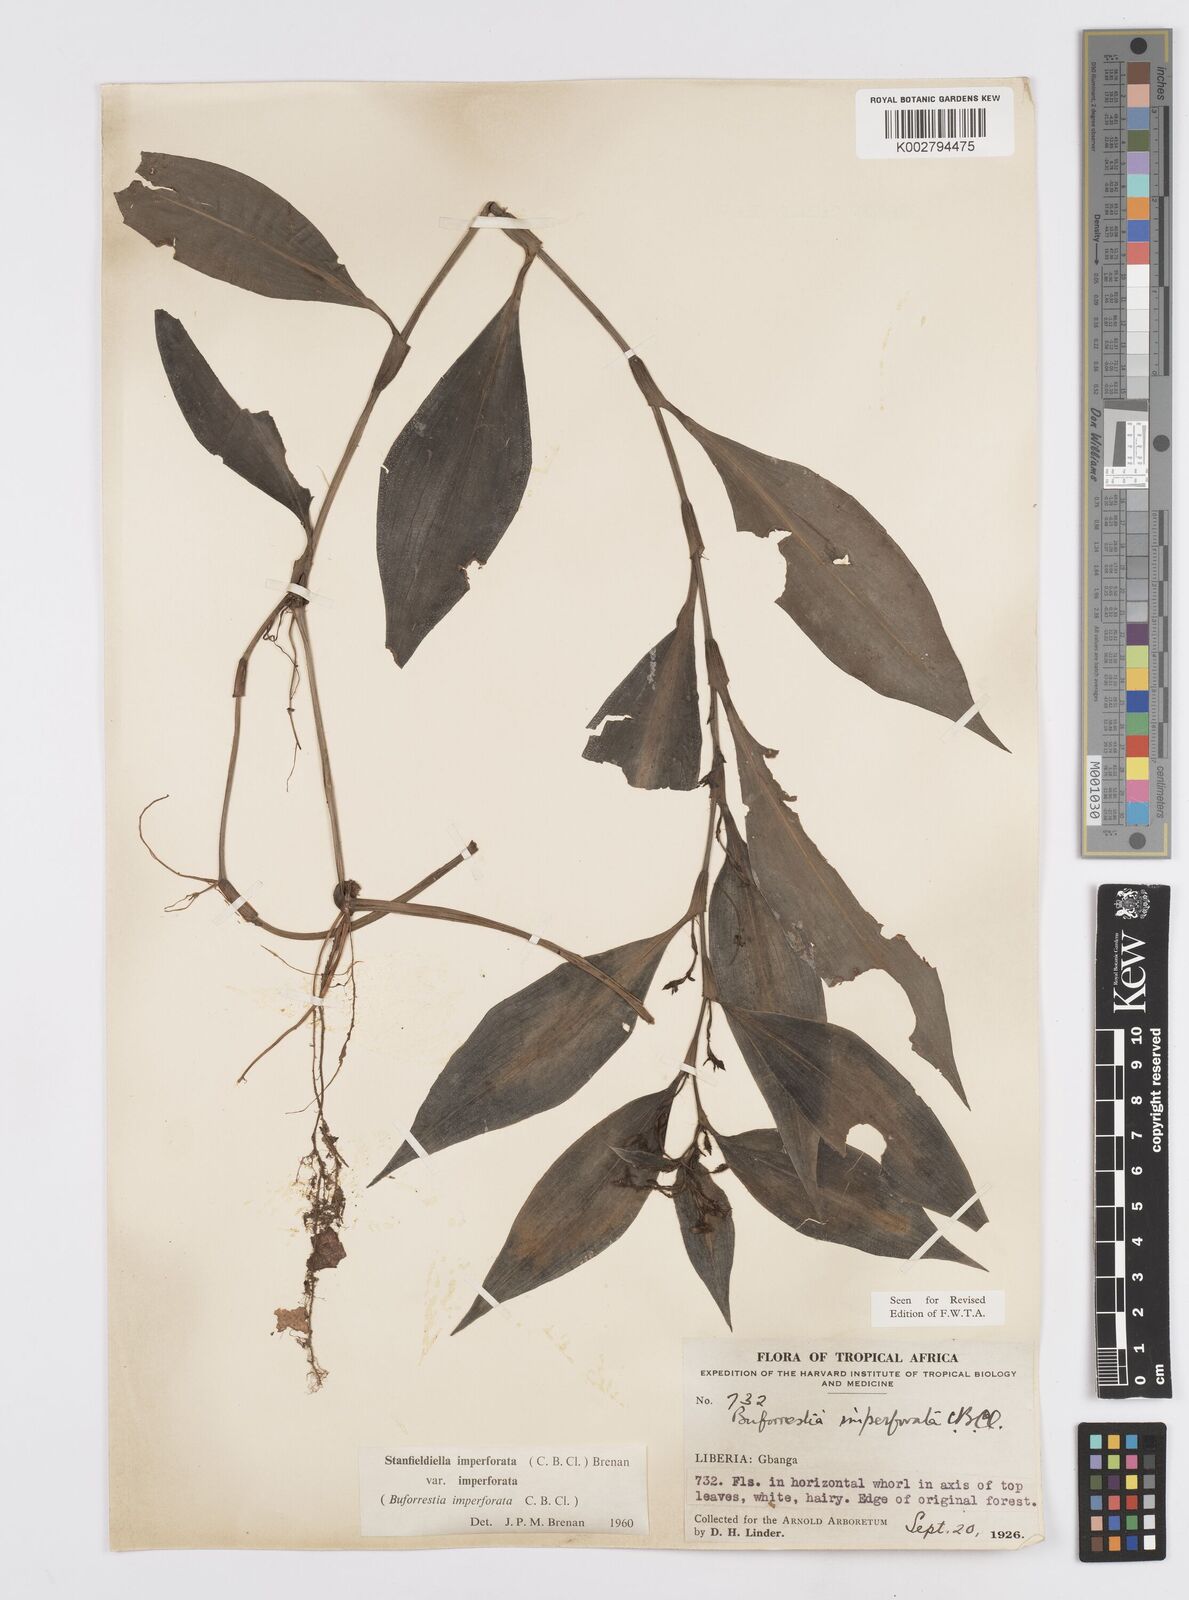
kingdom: Plantae
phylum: Tracheophyta
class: Liliopsida
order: Commelinales
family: Commelinaceae
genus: Stanfieldiella
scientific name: Stanfieldiella imperforata
